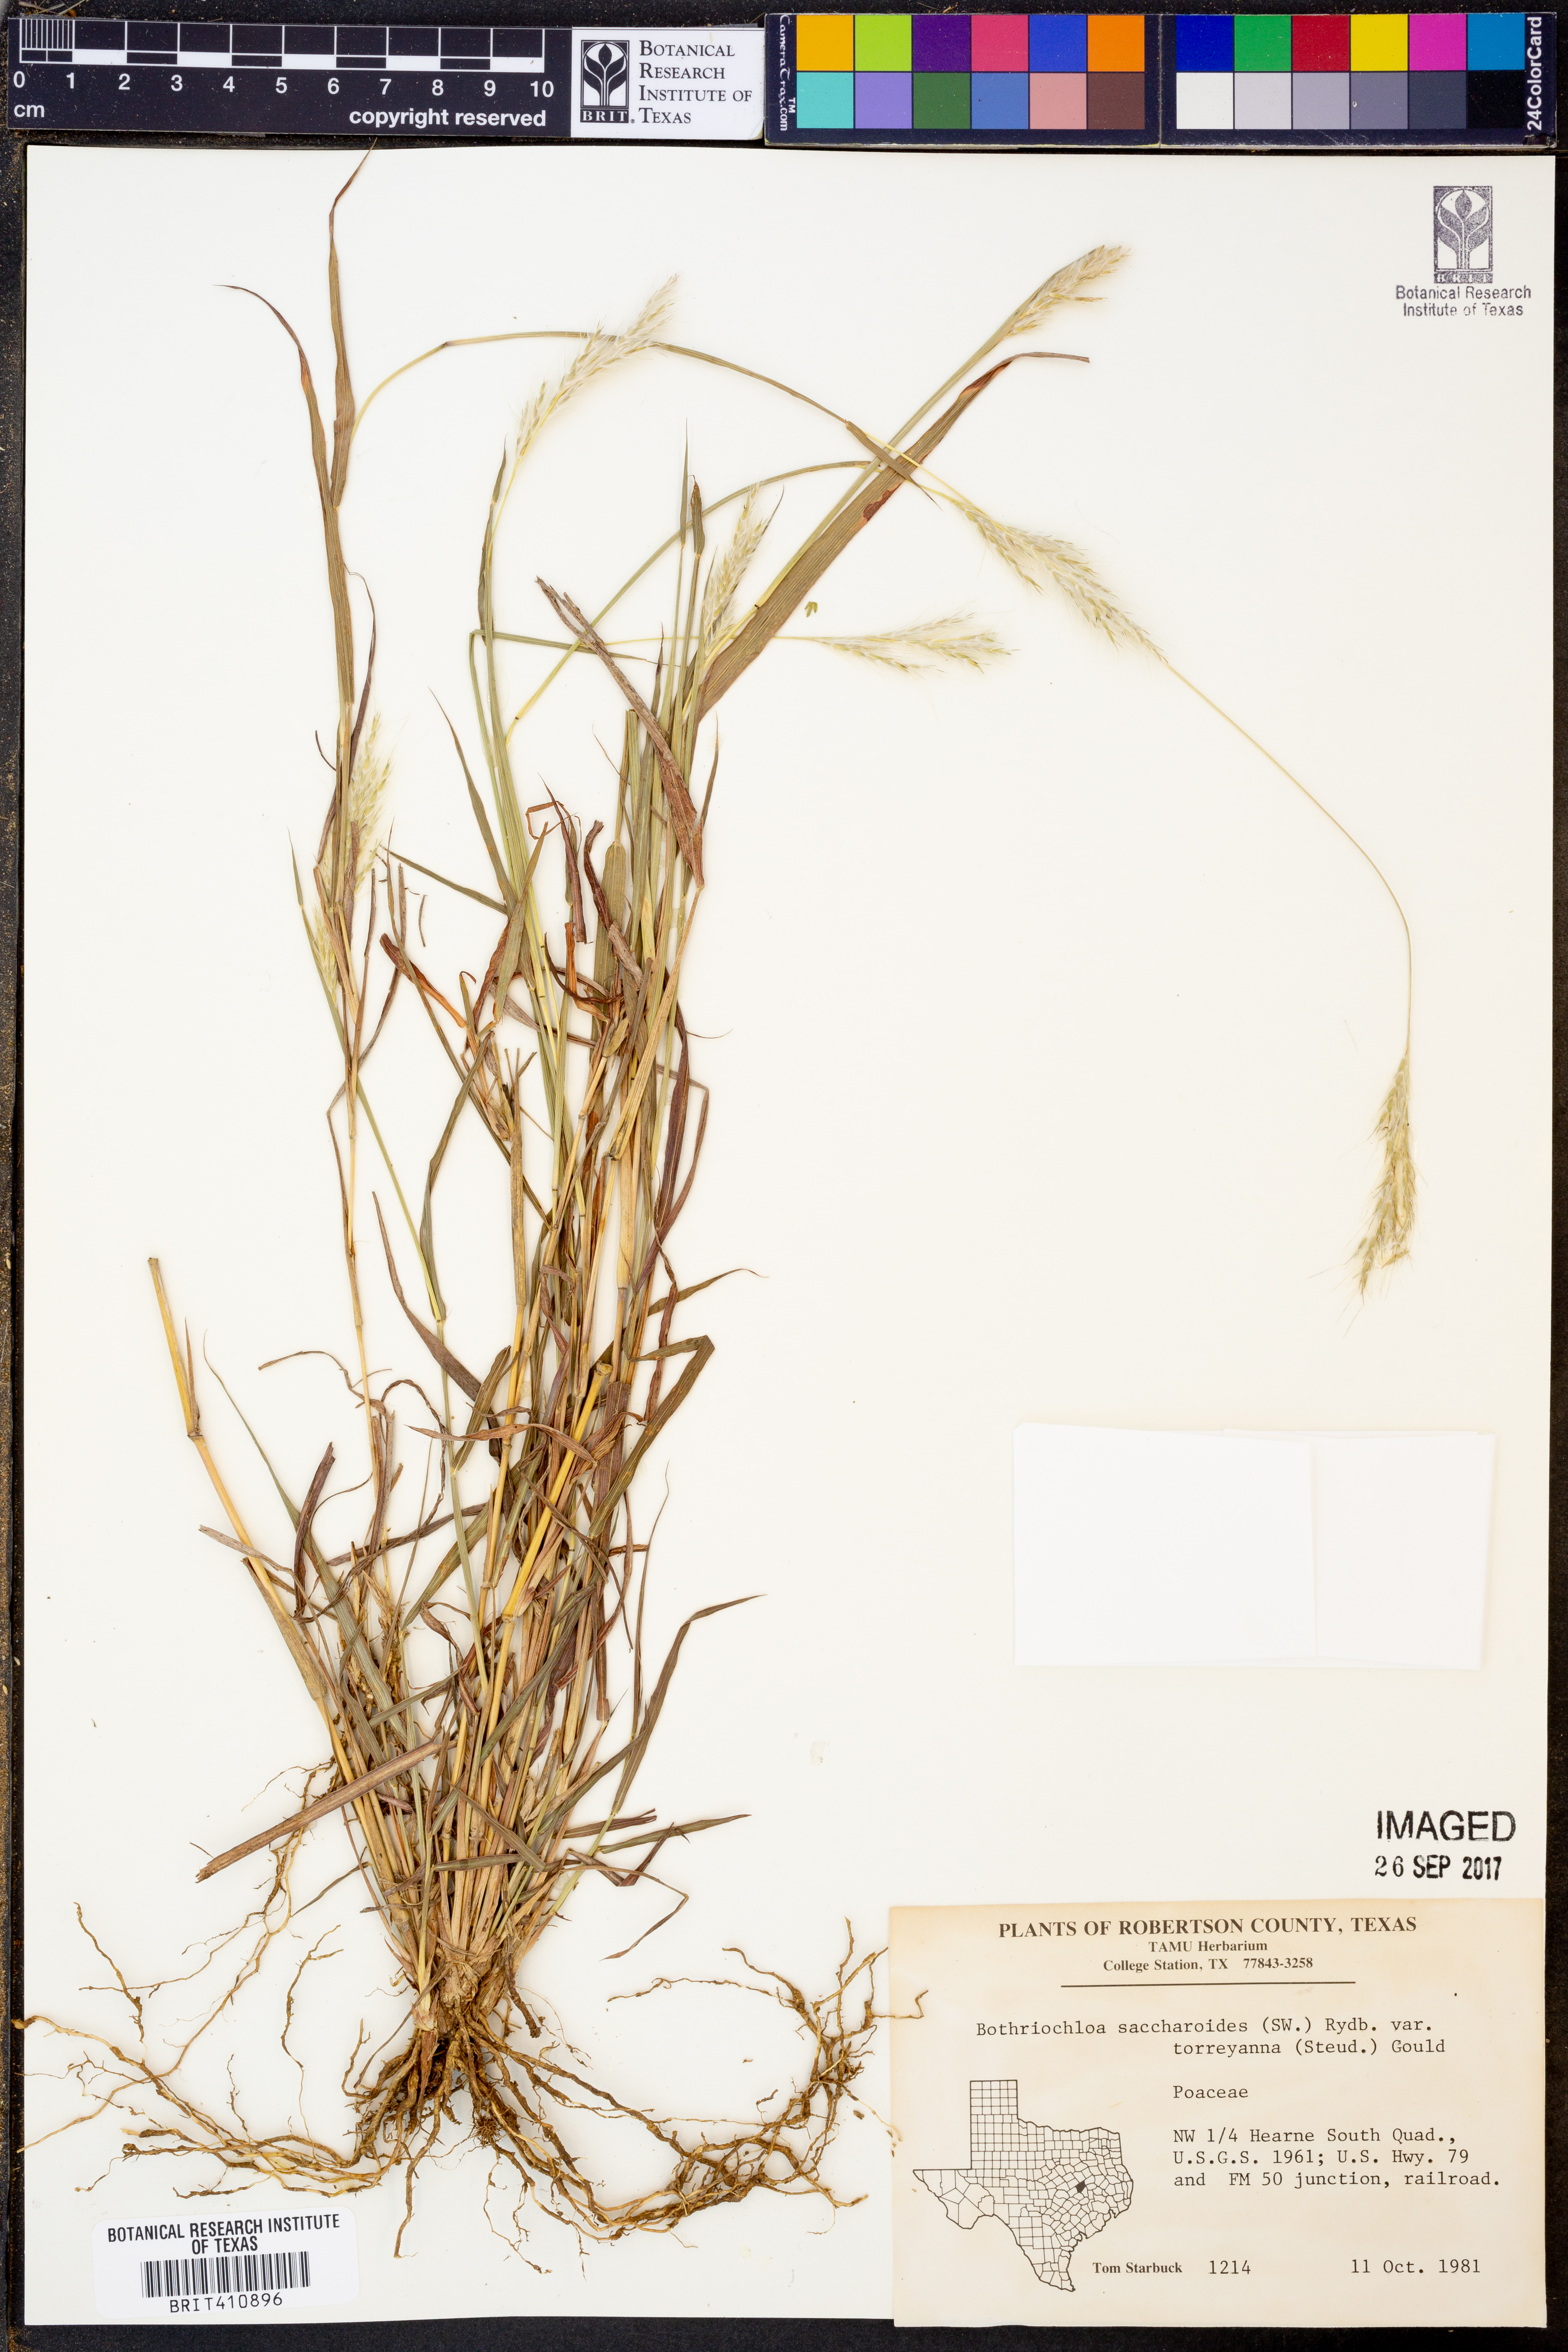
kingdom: Plantae
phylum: Tracheophyta
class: Liliopsida
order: Poales
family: Poaceae
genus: Bothriochloa
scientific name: Bothriochloa torreyana
